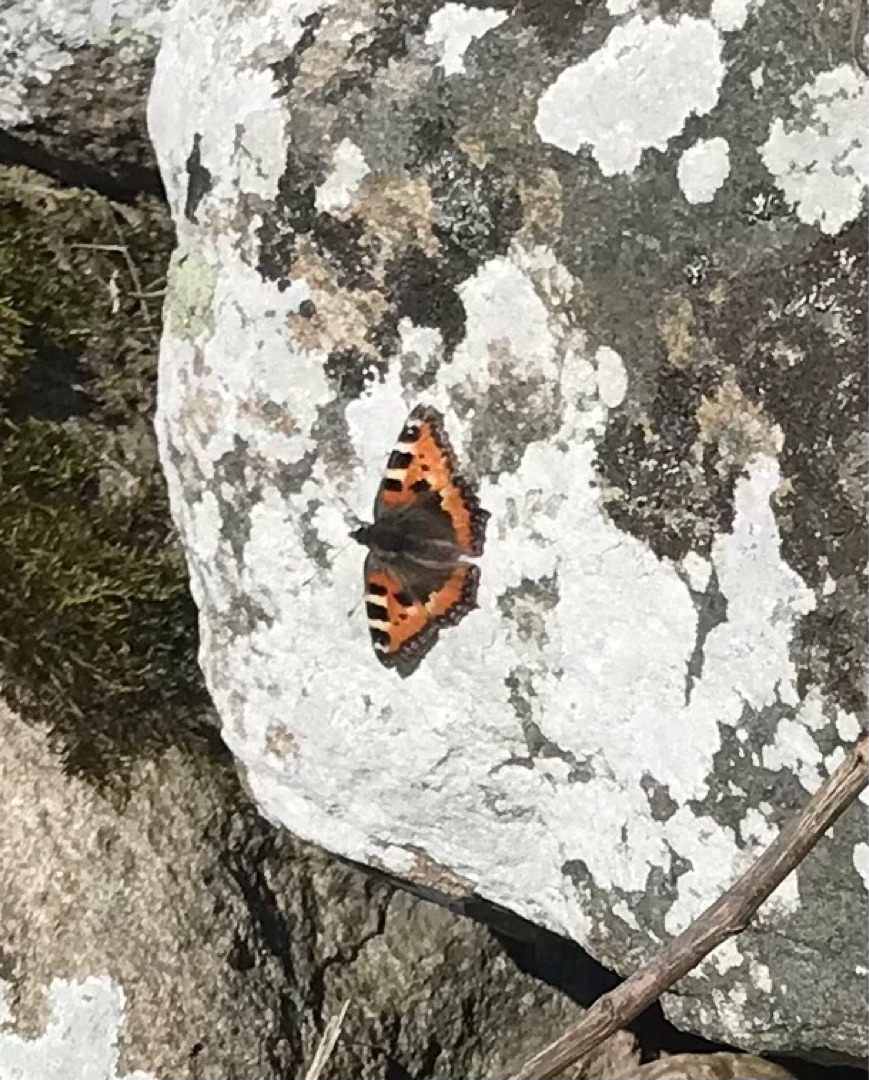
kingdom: Animalia
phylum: Arthropoda
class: Insecta
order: Lepidoptera
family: Nymphalidae
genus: Aglais
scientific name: Aglais urticae
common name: Nældens takvinge
